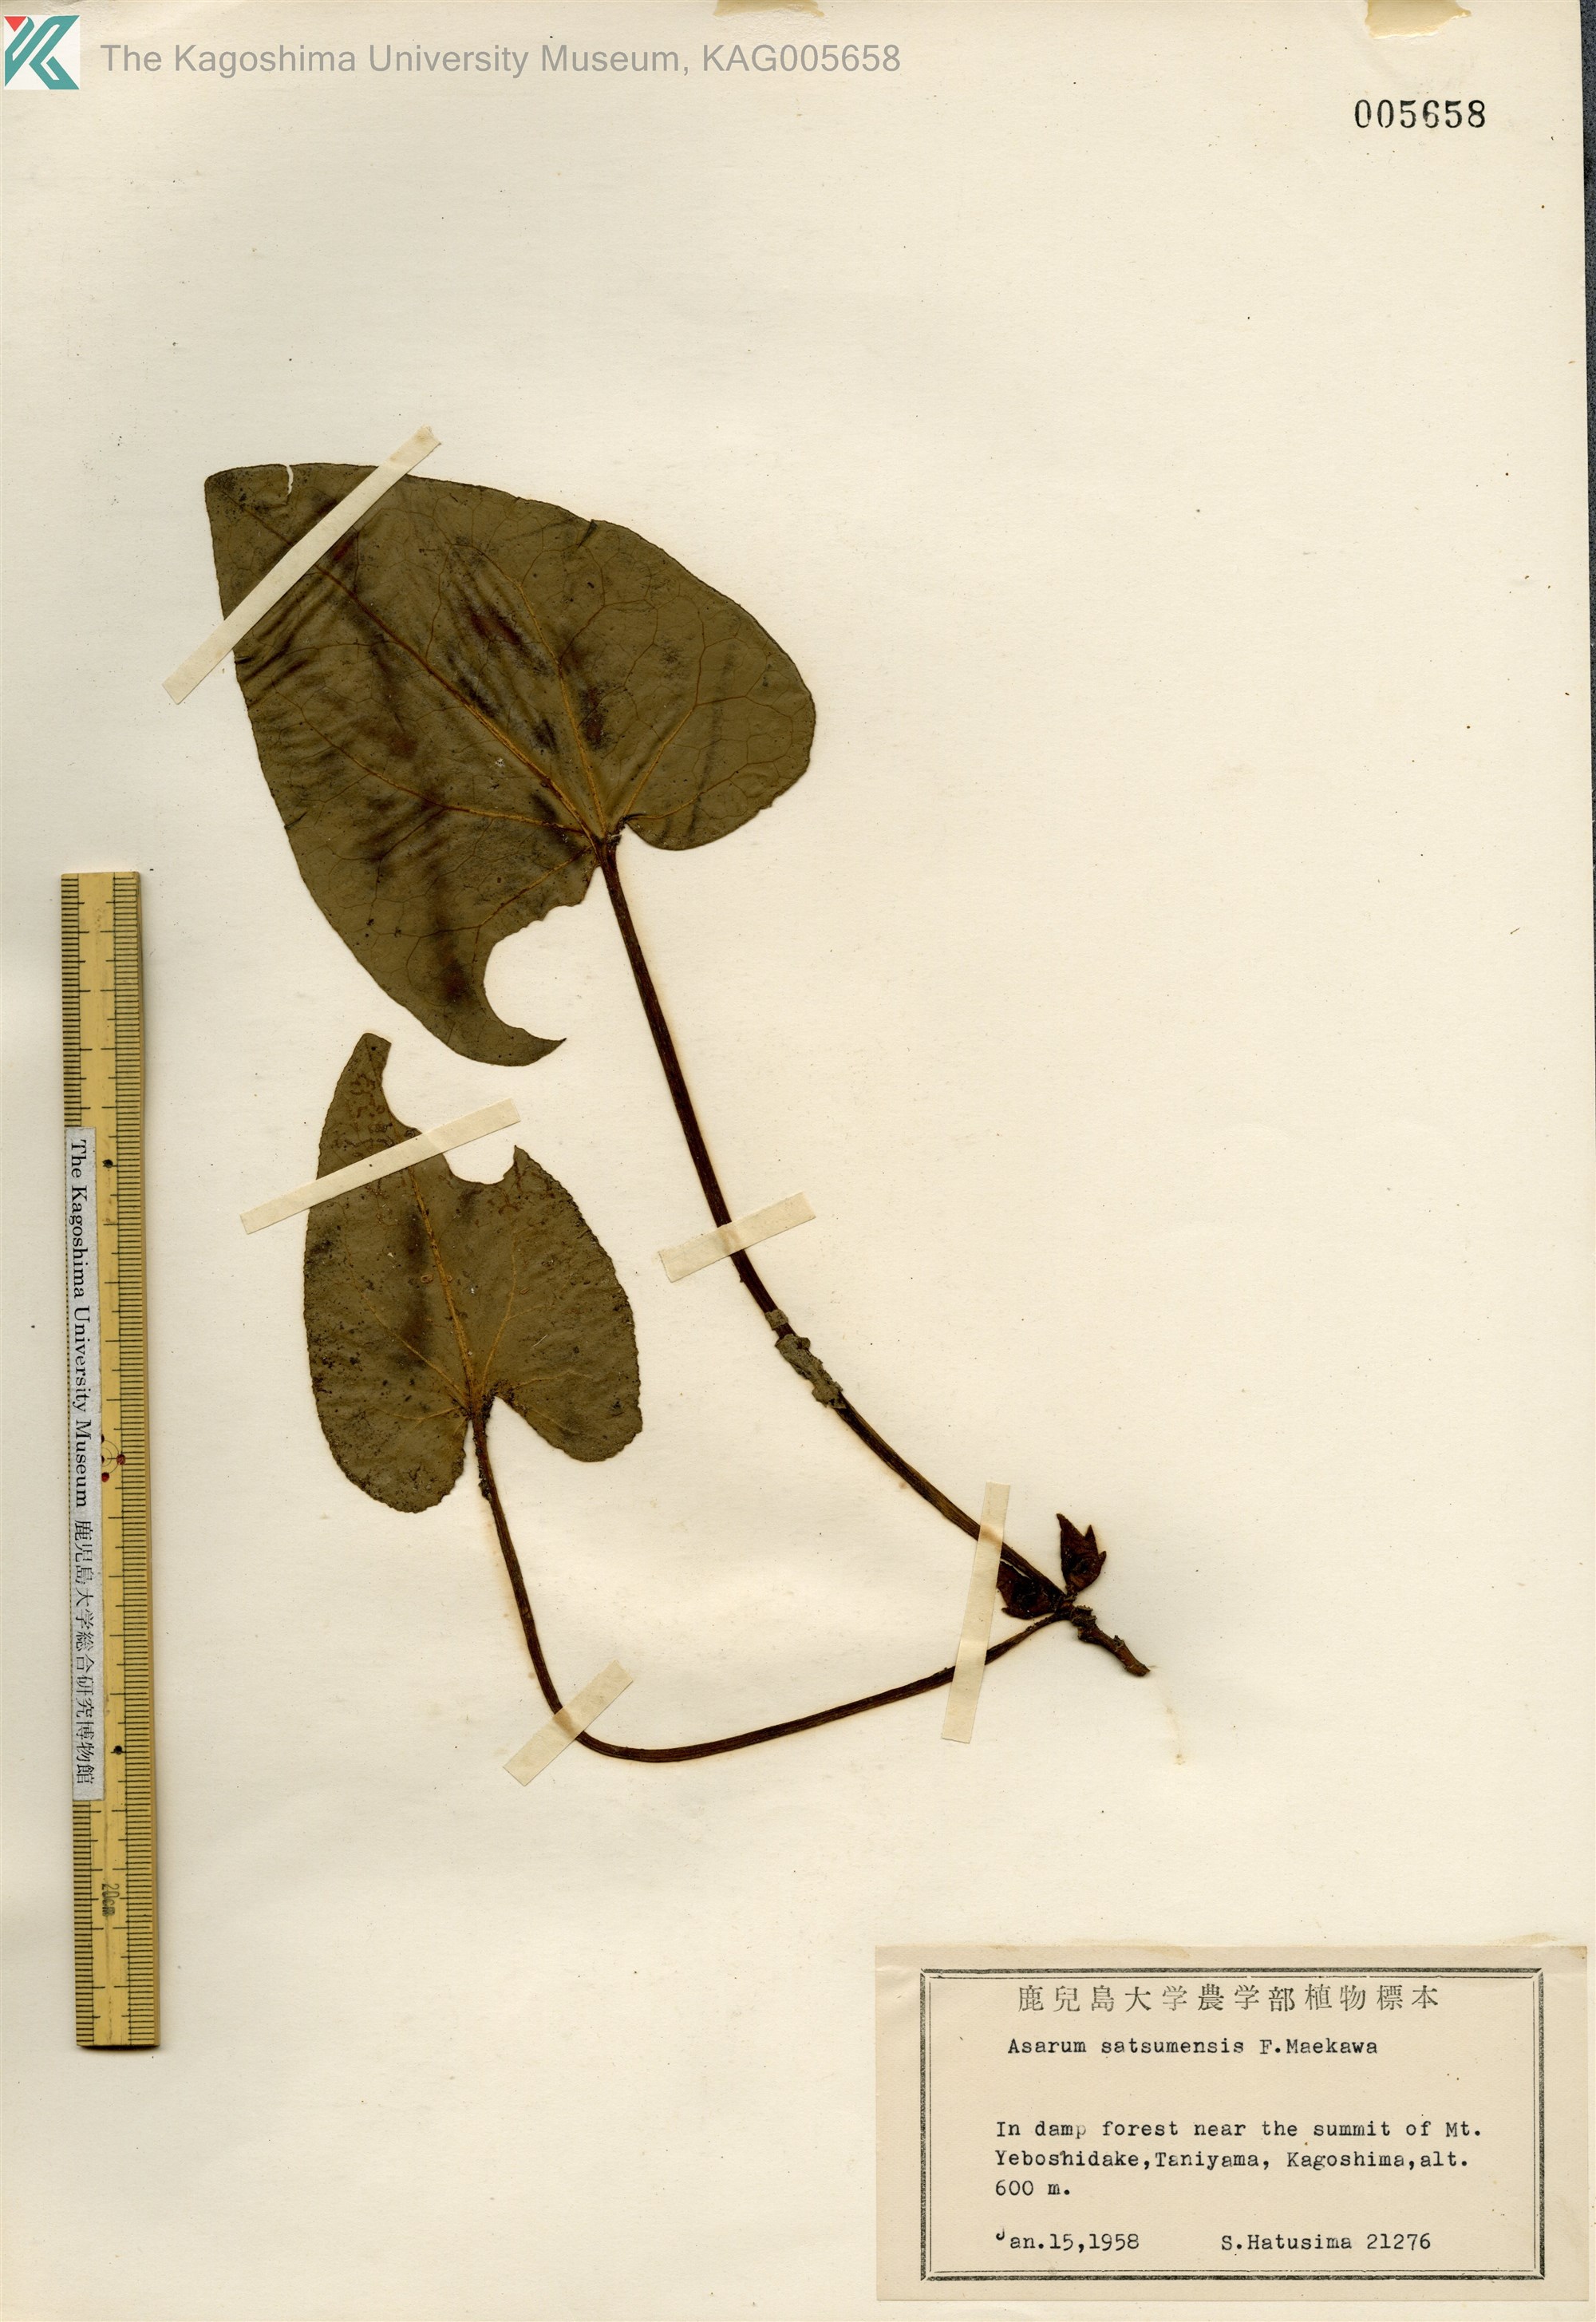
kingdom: Plantae
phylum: Tracheophyta
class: Magnoliopsida
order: Piperales
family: Aristolochiaceae
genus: Asarum
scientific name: Asarum satsumense
